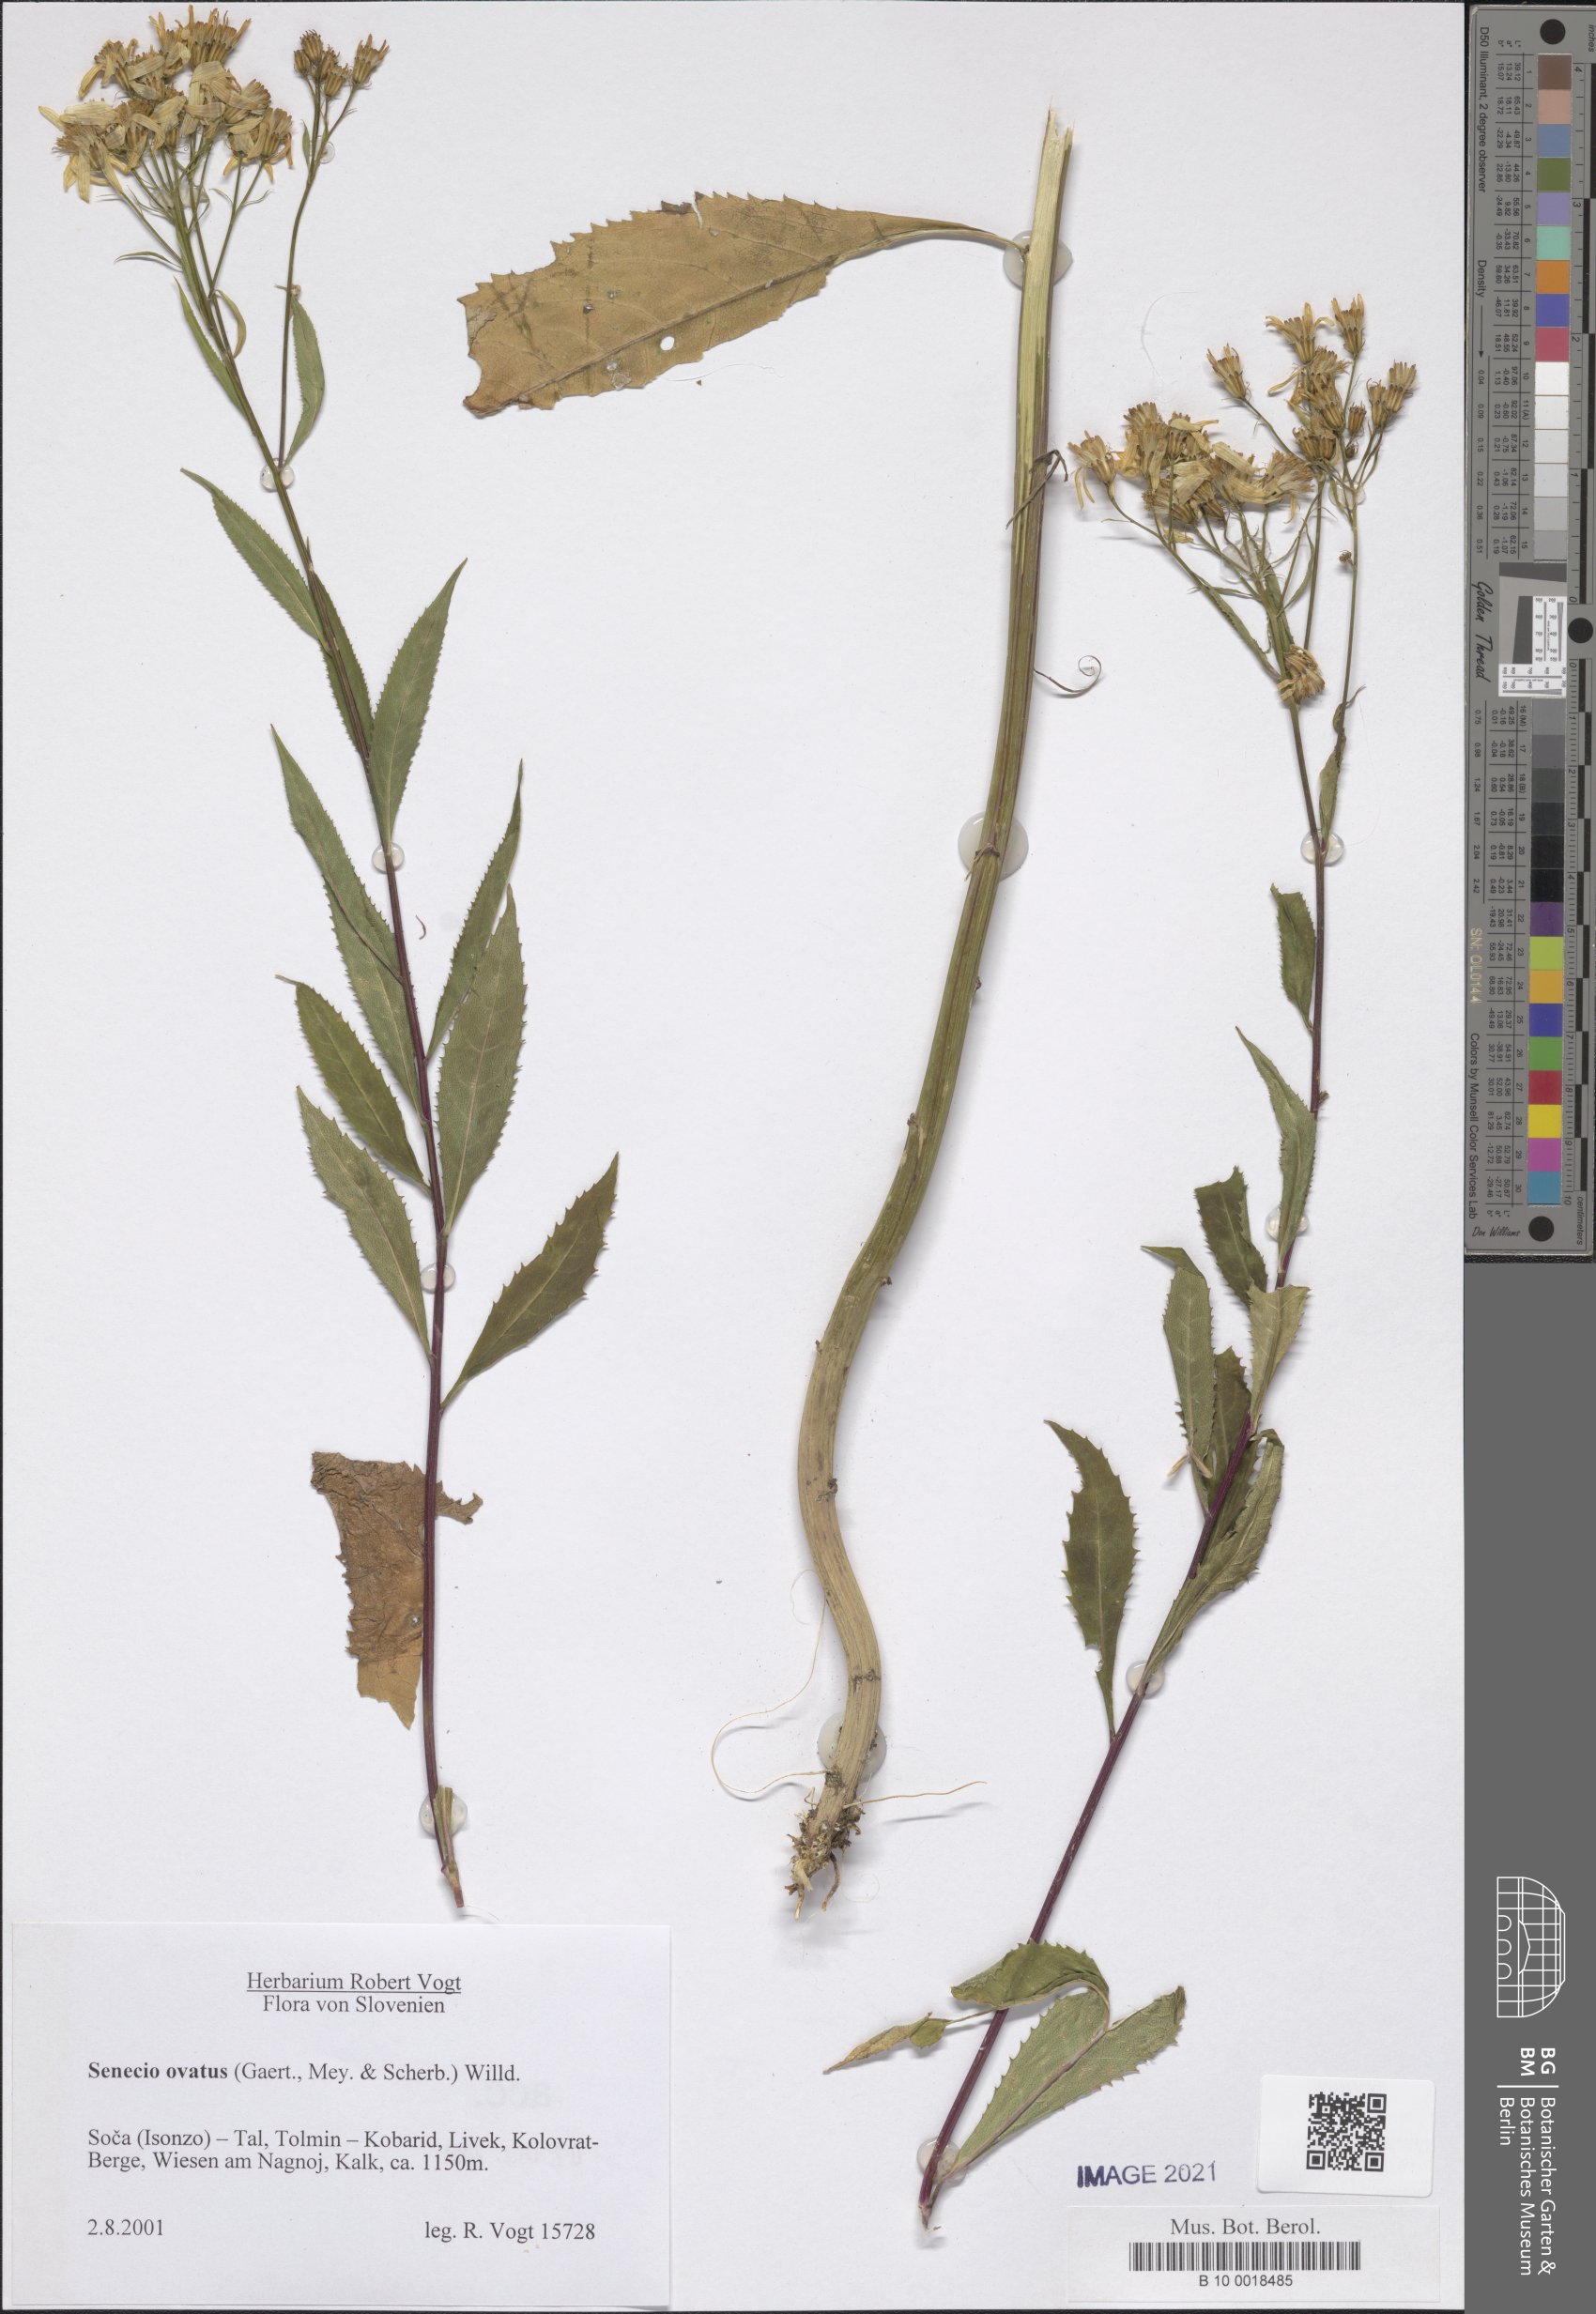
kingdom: Plantae
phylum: Tracheophyta
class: Magnoliopsida
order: Asterales
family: Asteraceae
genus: Senecio
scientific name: Senecio ovatus
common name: Wood ragwort
